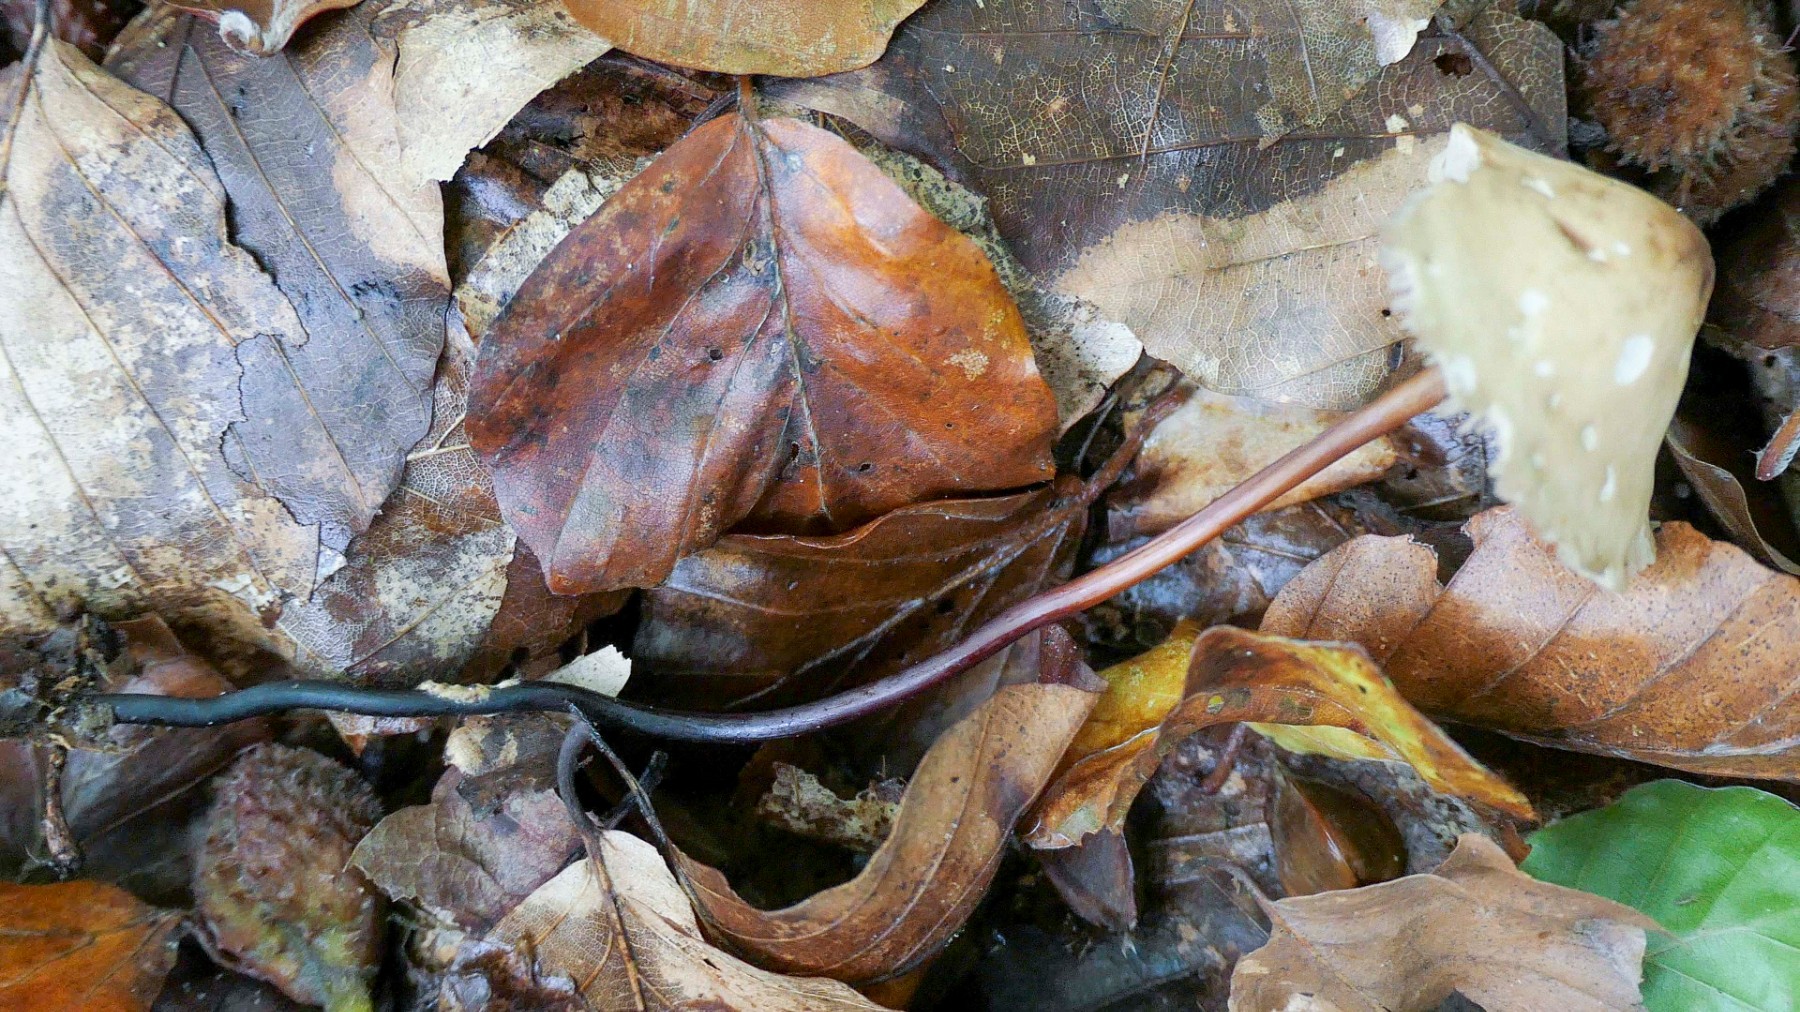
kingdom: Fungi
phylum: Basidiomycota
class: Agaricomycetes
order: Agaricales
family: Marasmiaceae
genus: Marasmius
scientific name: Marasmius cohaerens
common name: hornstokket bruskhat
